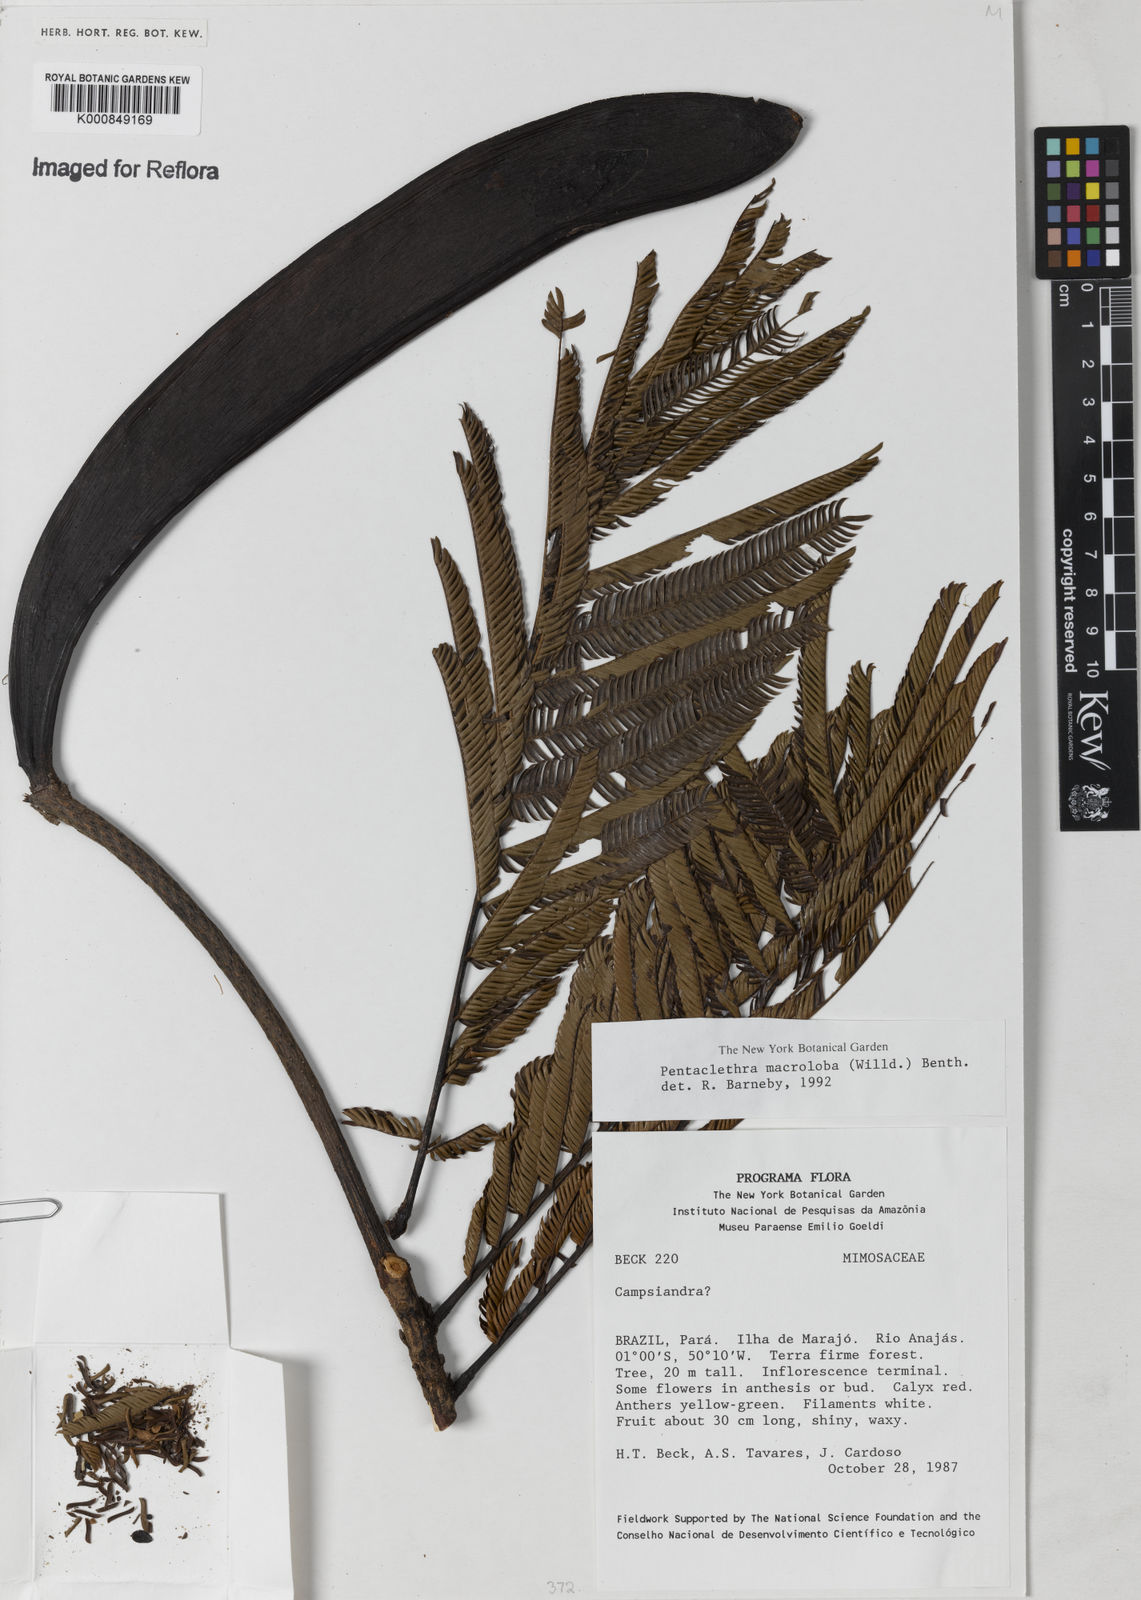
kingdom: Plantae
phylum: Tracheophyta
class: Magnoliopsida
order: Fabales
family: Fabaceae
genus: Pentaclethra
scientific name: Pentaclethra macroloba
